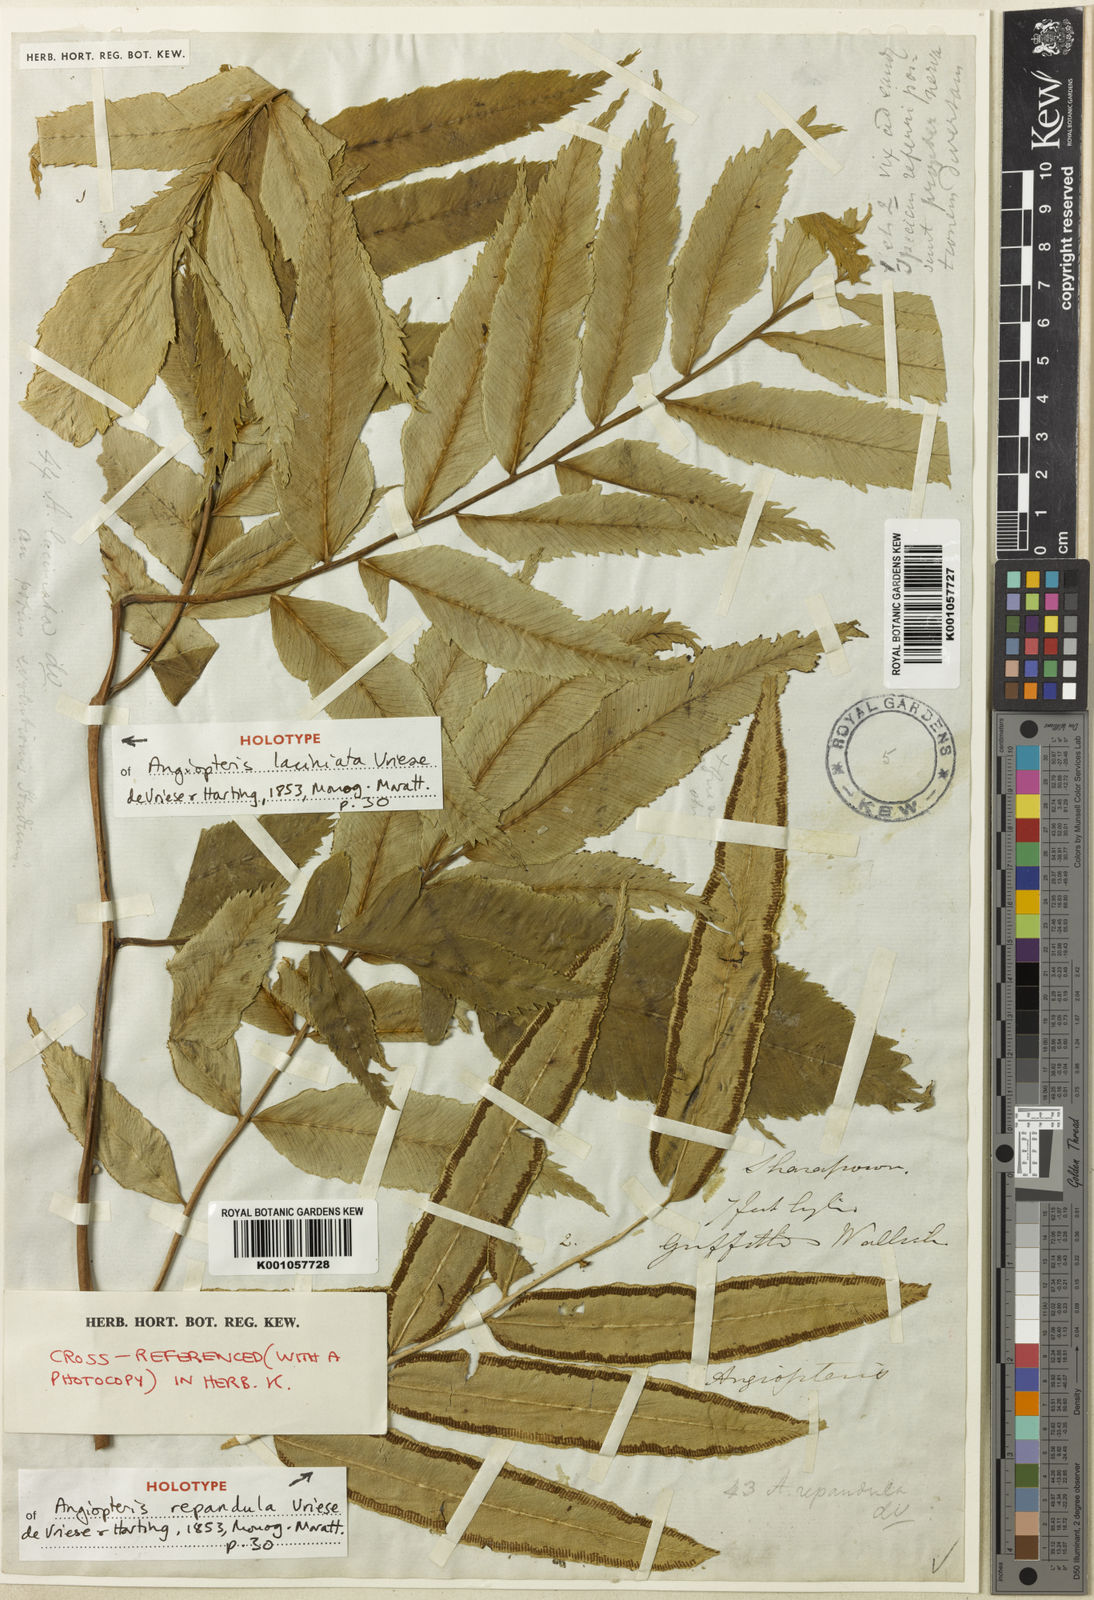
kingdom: Plantae
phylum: Tracheophyta
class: Polypodiopsida
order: Marattiales
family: Marattiaceae
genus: Angiopteris
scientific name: Angiopteris crassipes
